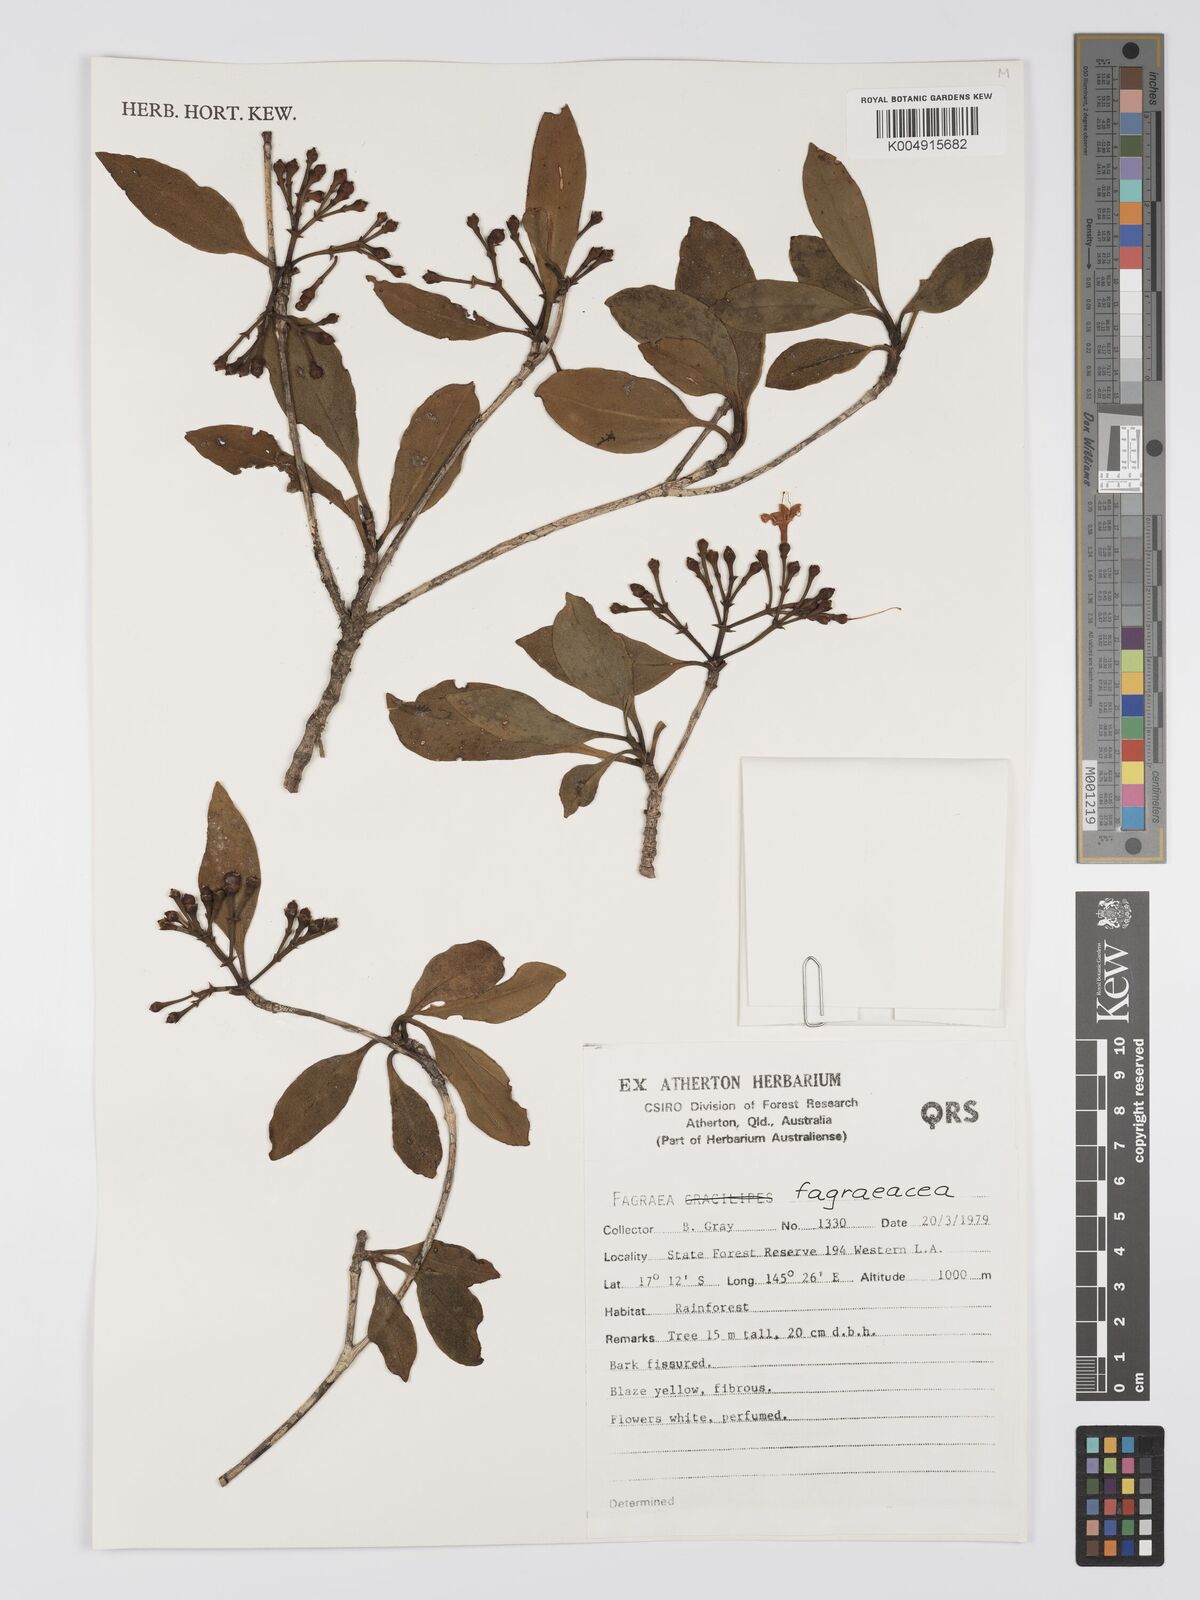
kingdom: Plantae
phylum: Tracheophyta
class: Magnoliopsida
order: Gentianales
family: Gentianaceae
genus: Fagraea
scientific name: Fagraea
